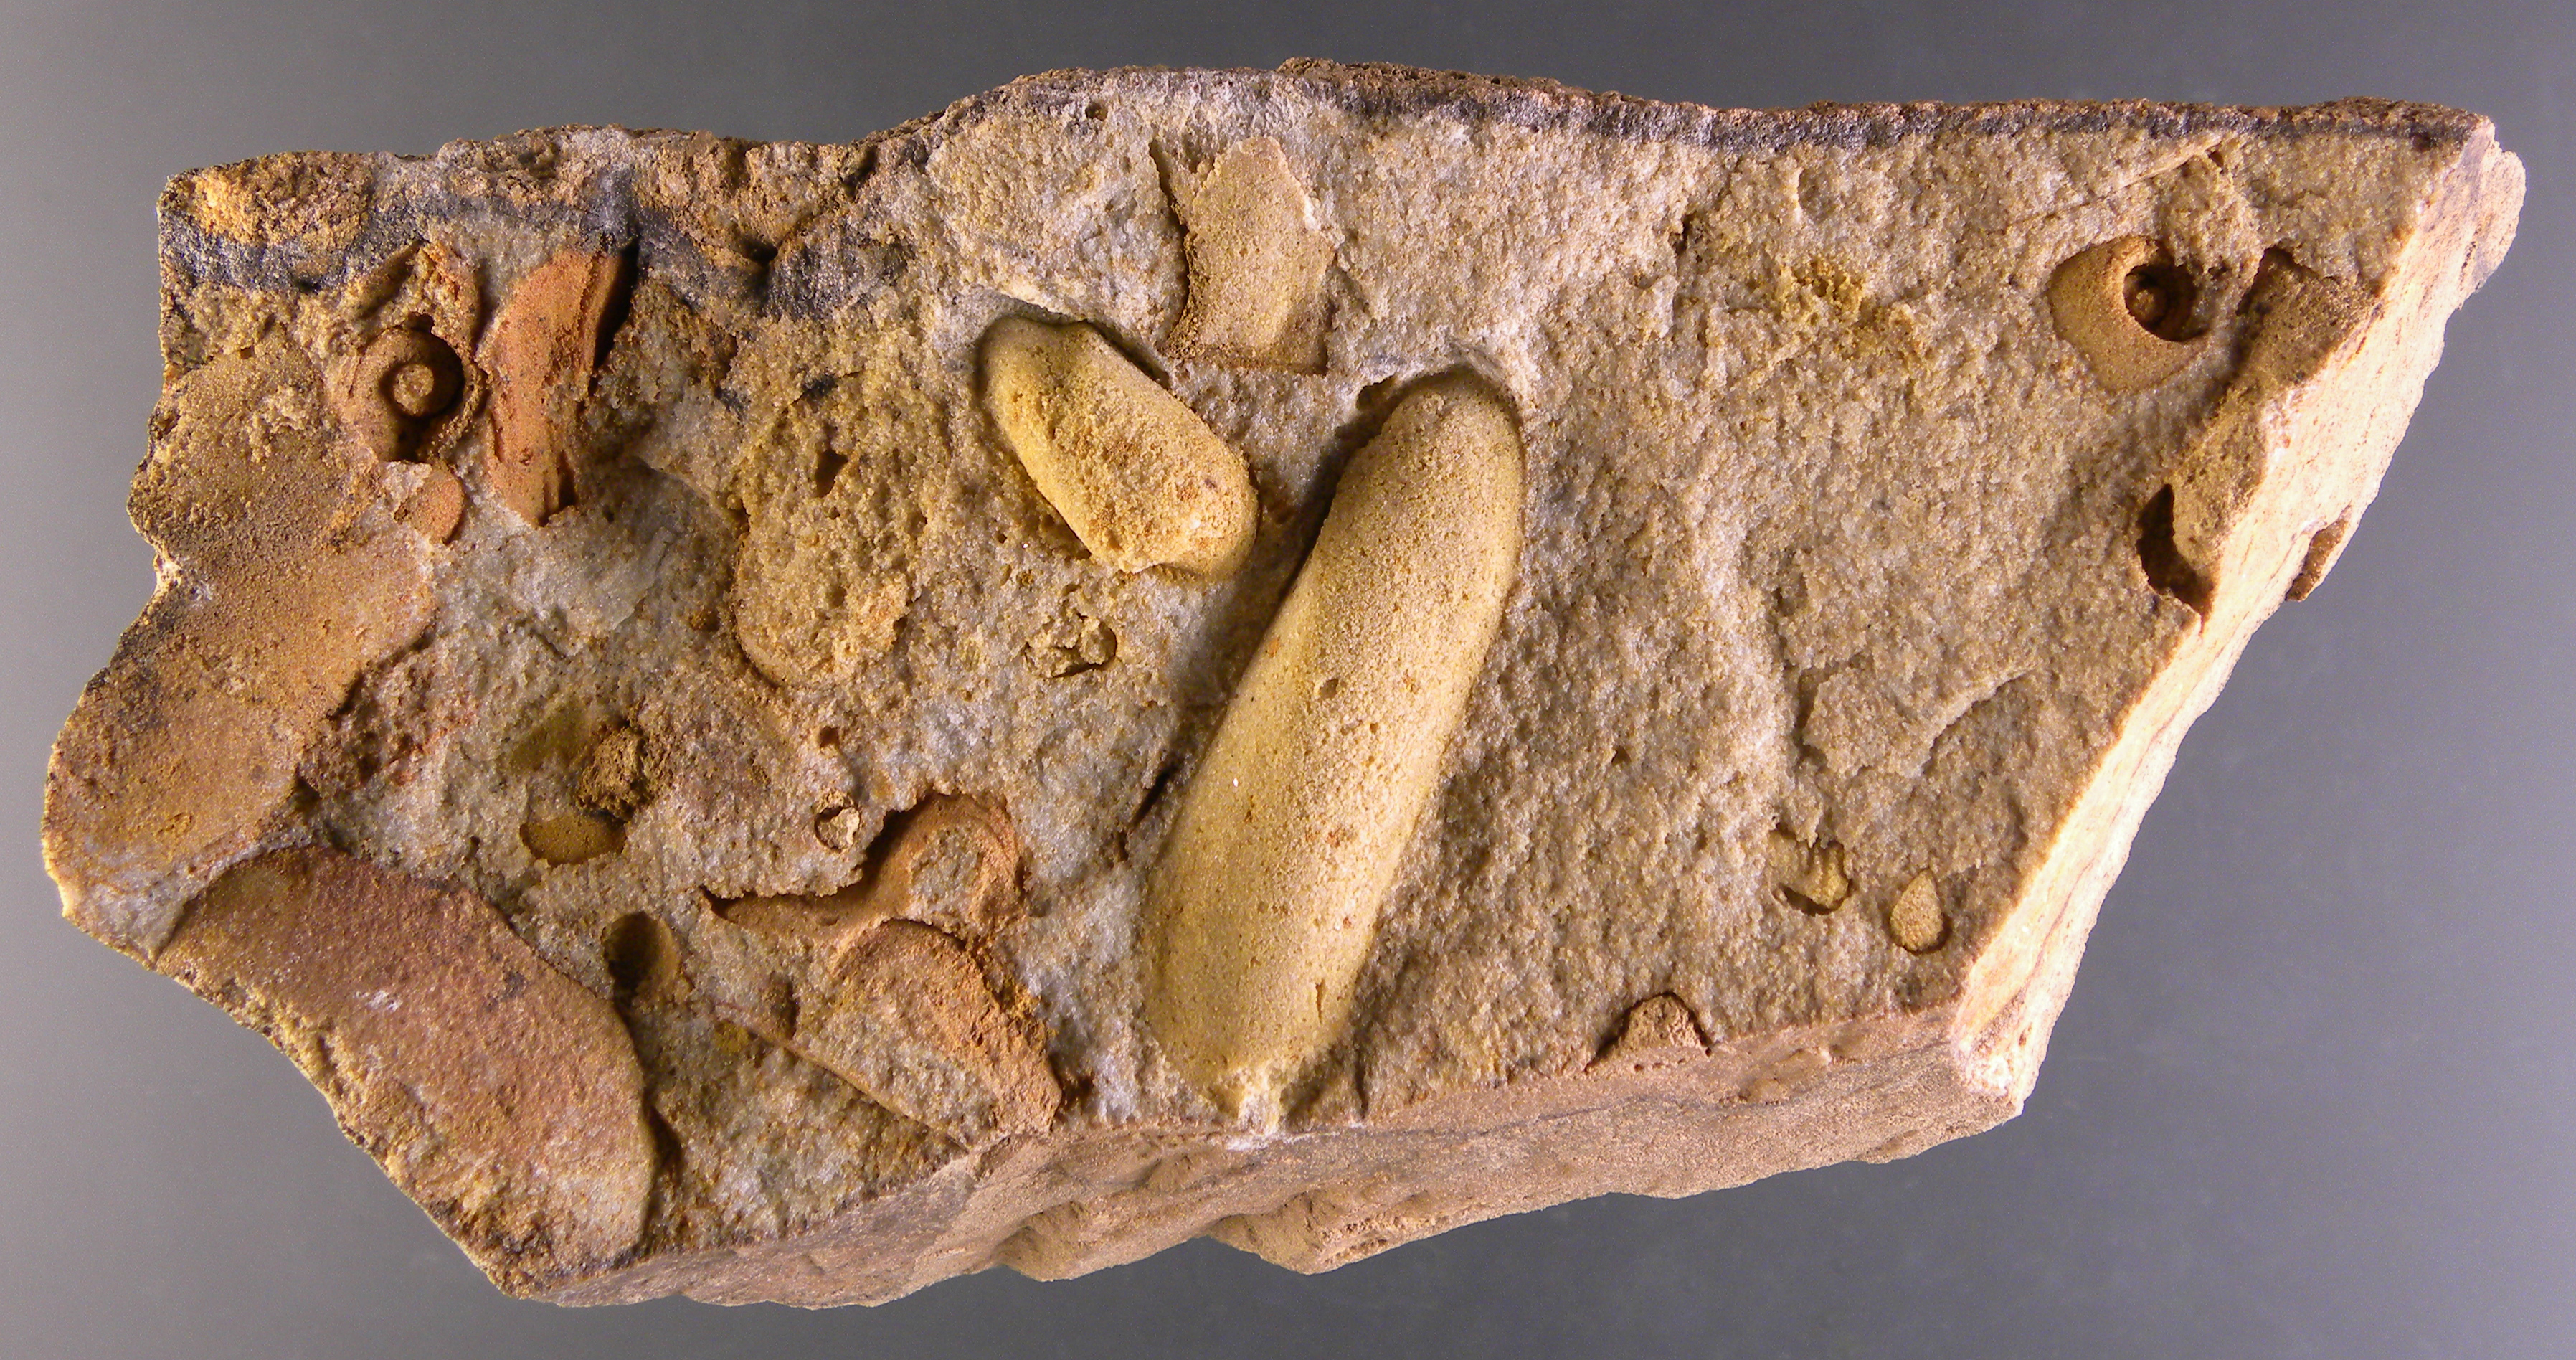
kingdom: Animalia
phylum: Mollusca
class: Bivalvia
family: Orthonotidae
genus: Orthonota
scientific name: Orthonota
